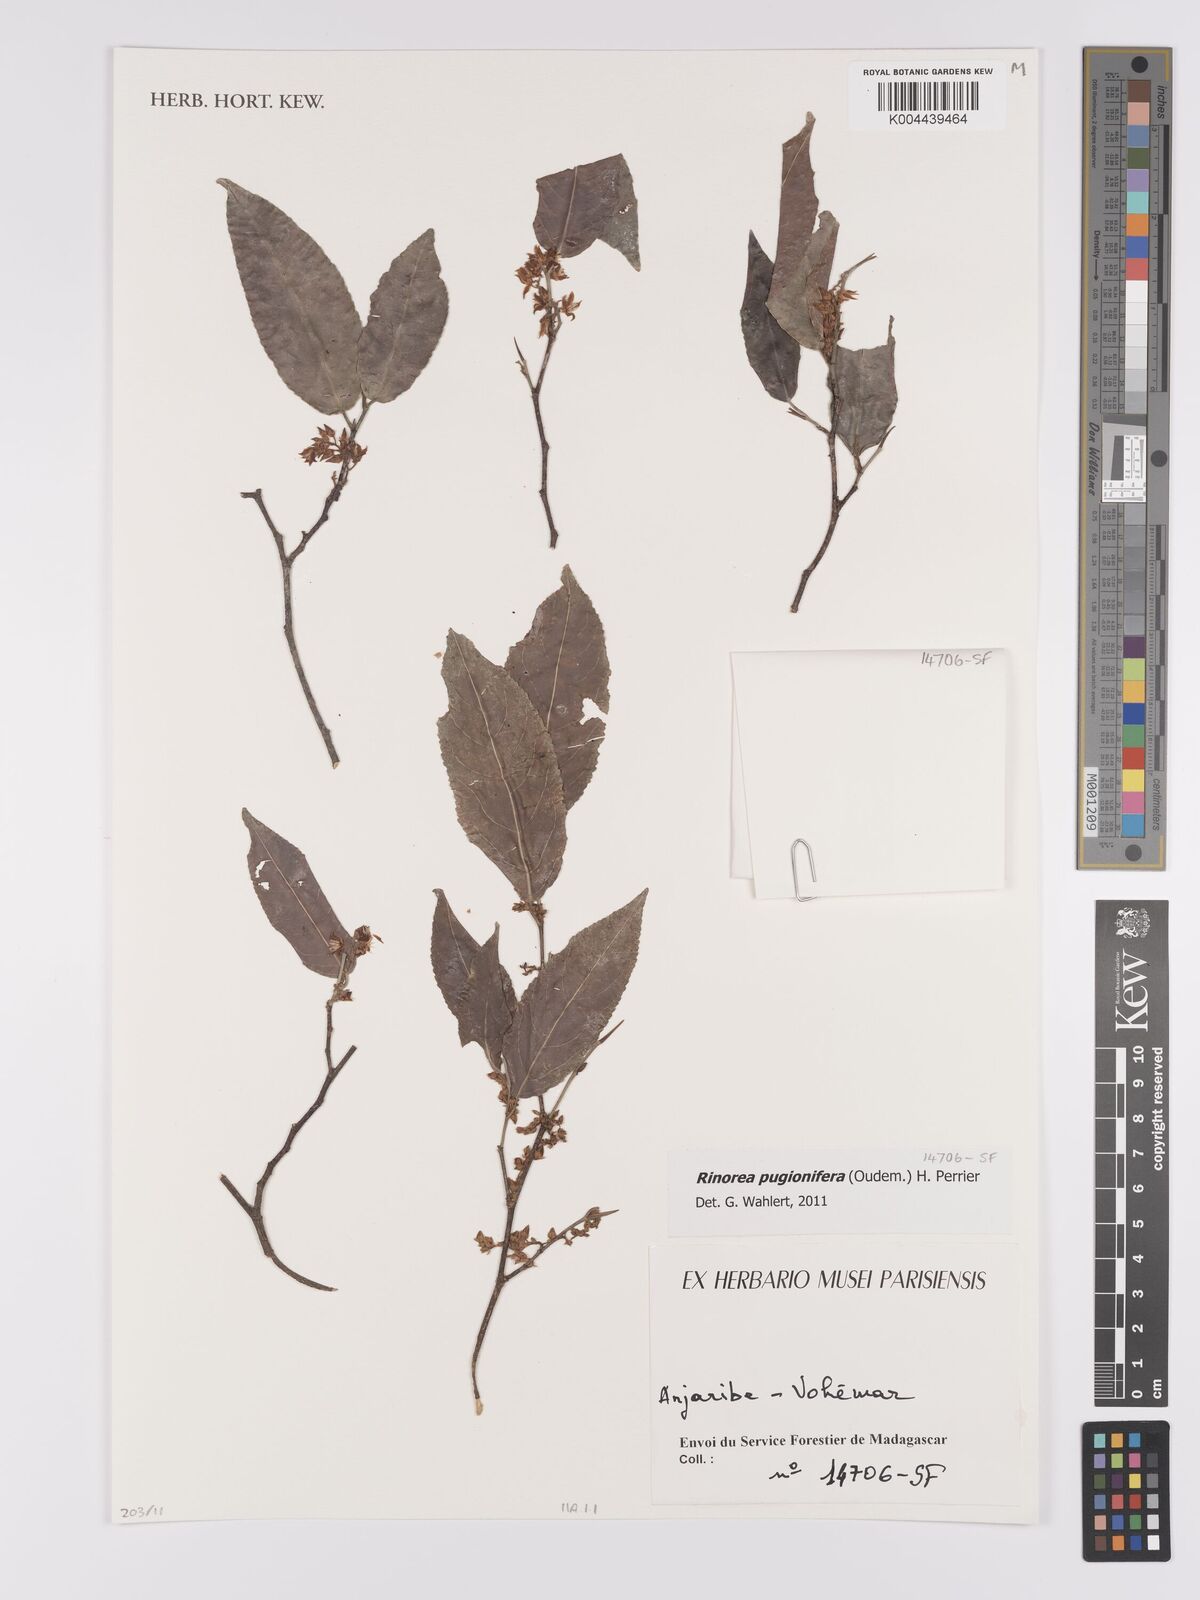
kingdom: Plantae
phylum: Tracheophyta
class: Magnoliopsida
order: Malpighiales
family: Violaceae
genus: Rinorea
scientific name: Rinorea pugionifera
